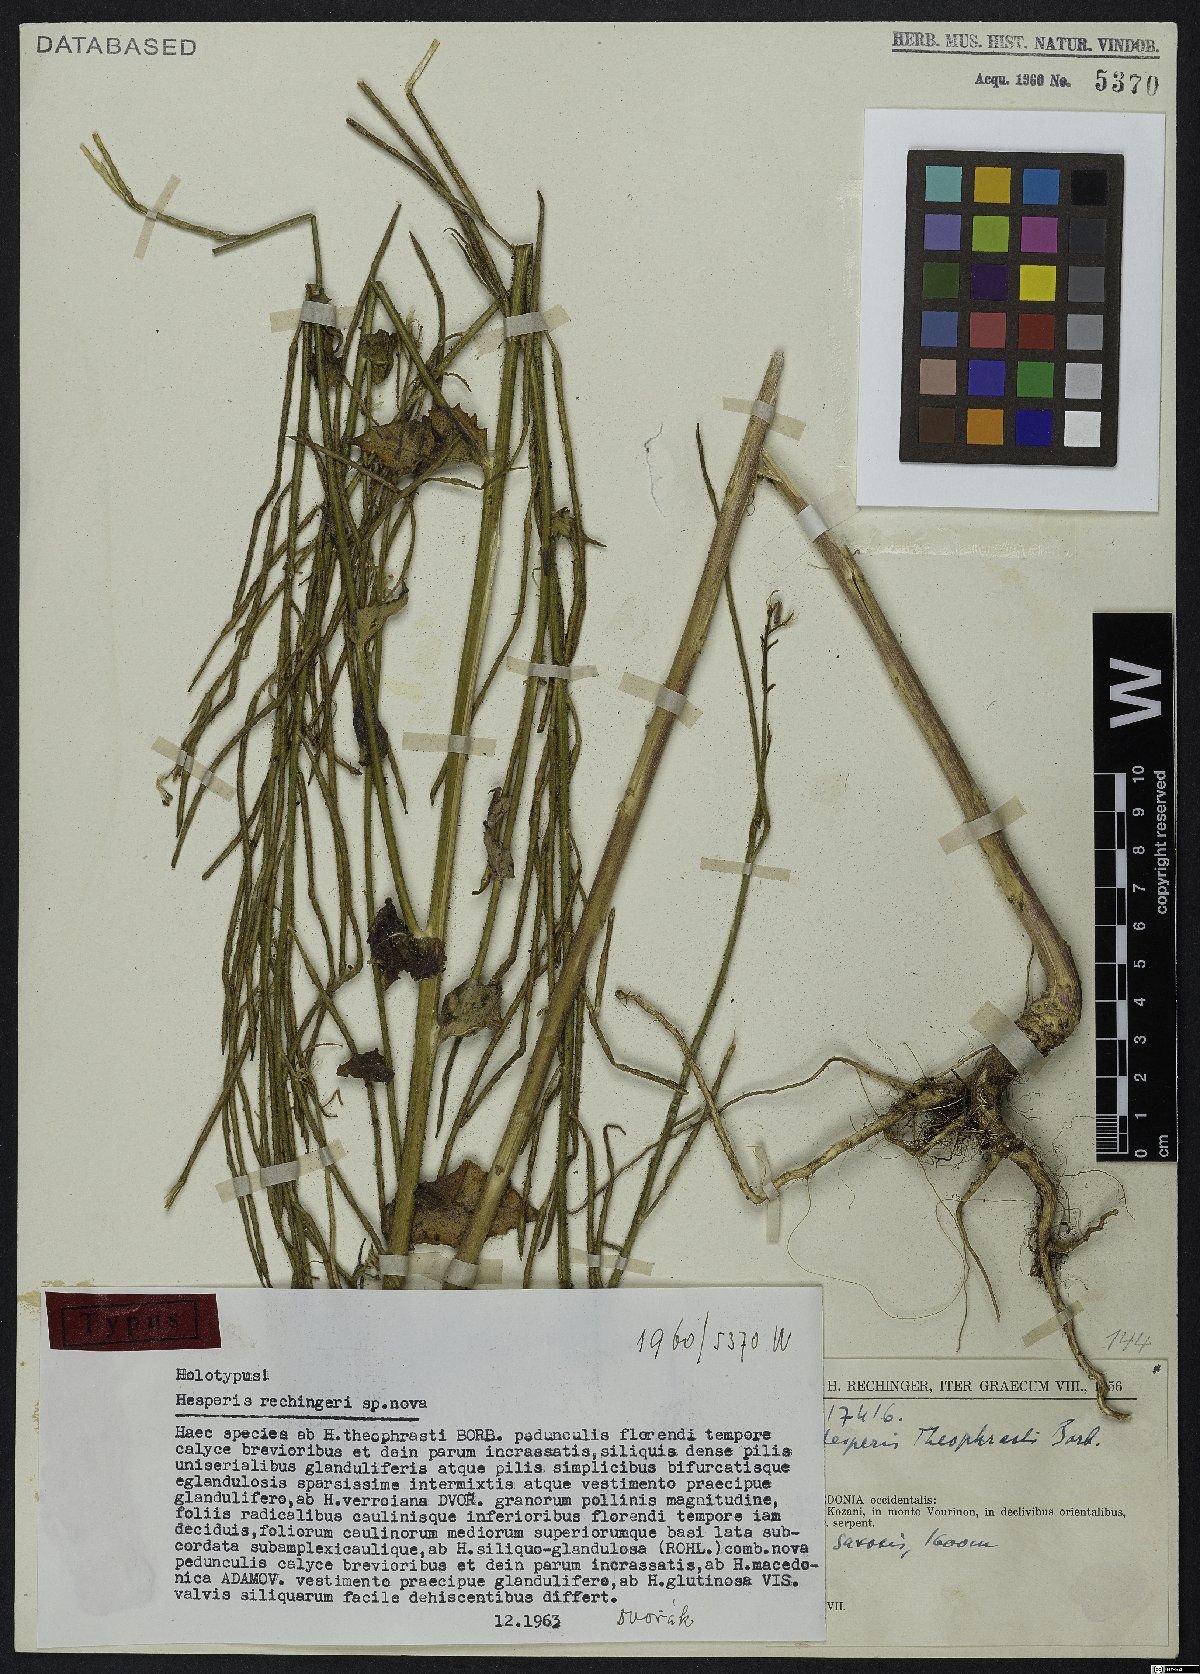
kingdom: Plantae
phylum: Tracheophyta
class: Magnoliopsida
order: Brassicales
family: Brassicaceae
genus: Hesperis
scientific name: Hesperis theophrasti
